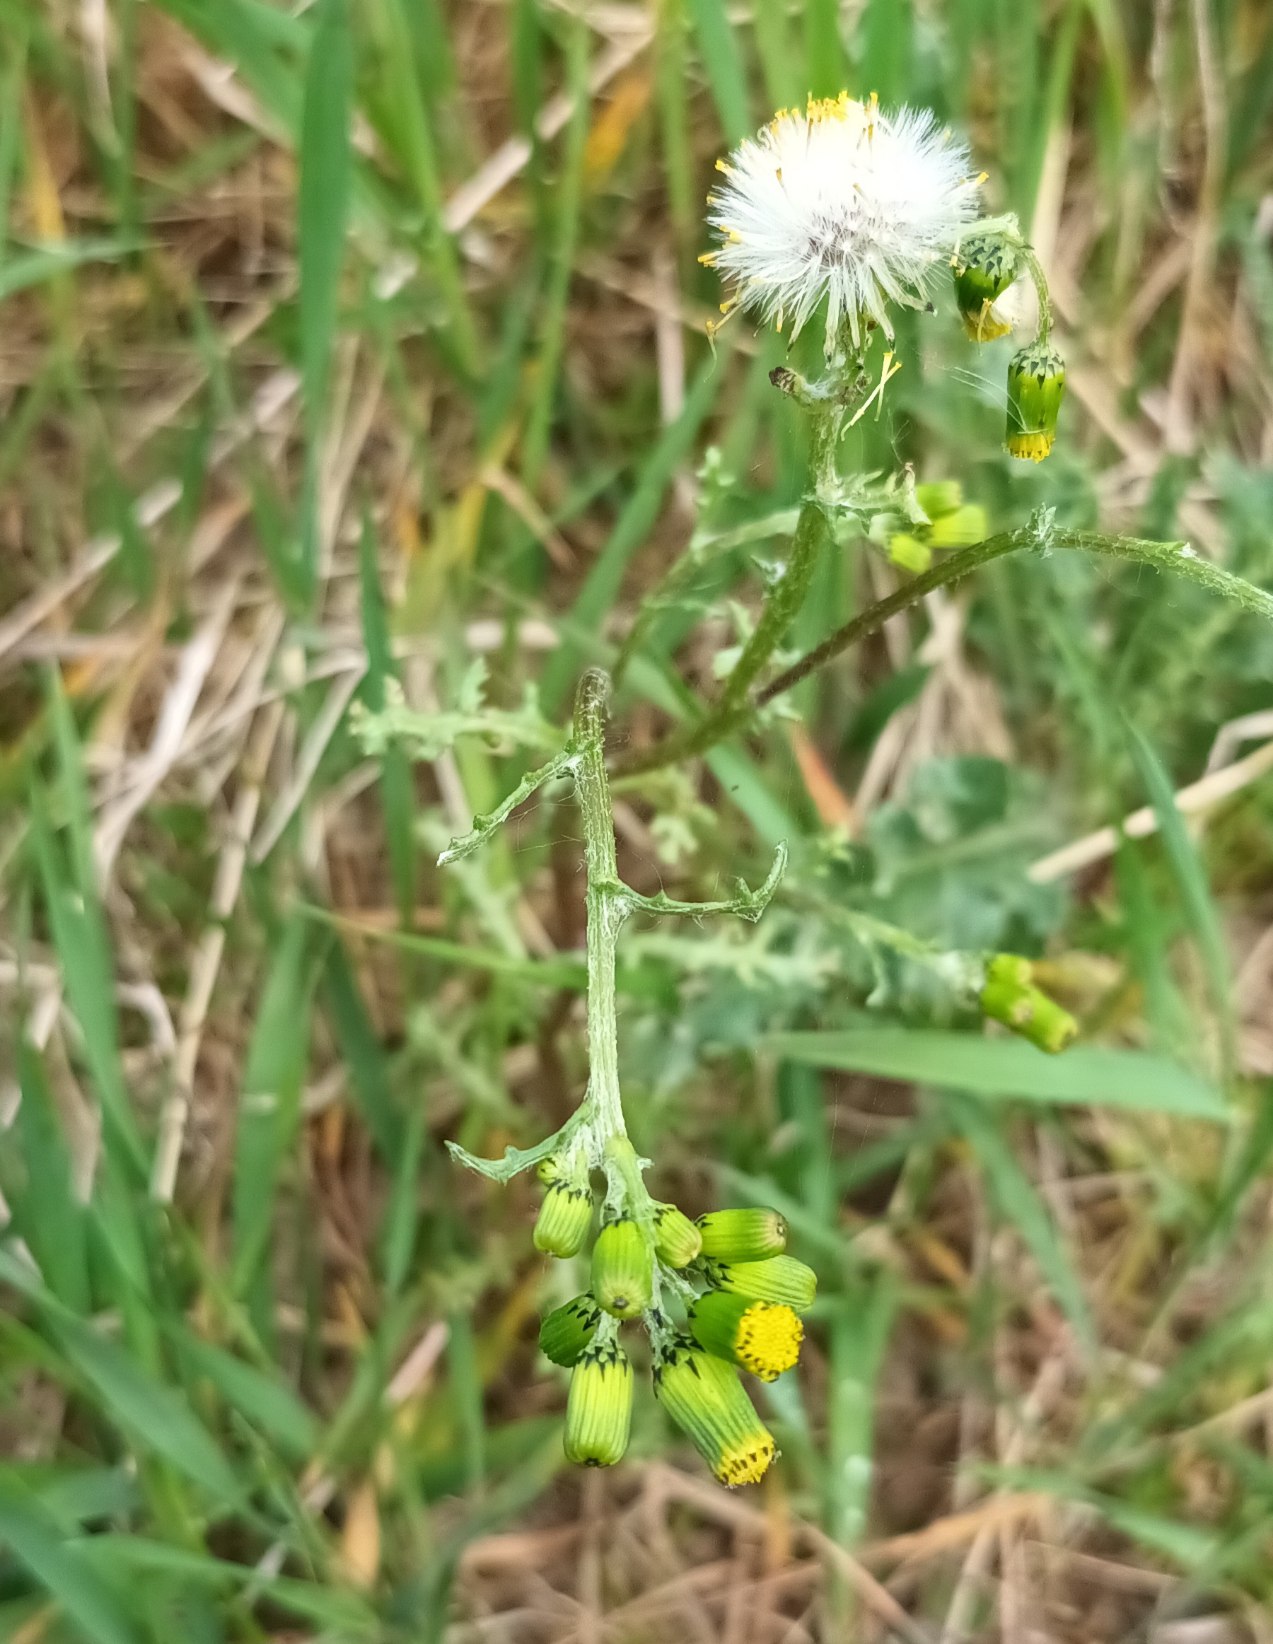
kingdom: Plantae
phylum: Tracheophyta
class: Magnoliopsida
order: Asterales
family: Asteraceae
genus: Senecio
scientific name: Senecio vulgaris
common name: Almindelig brandbæger
